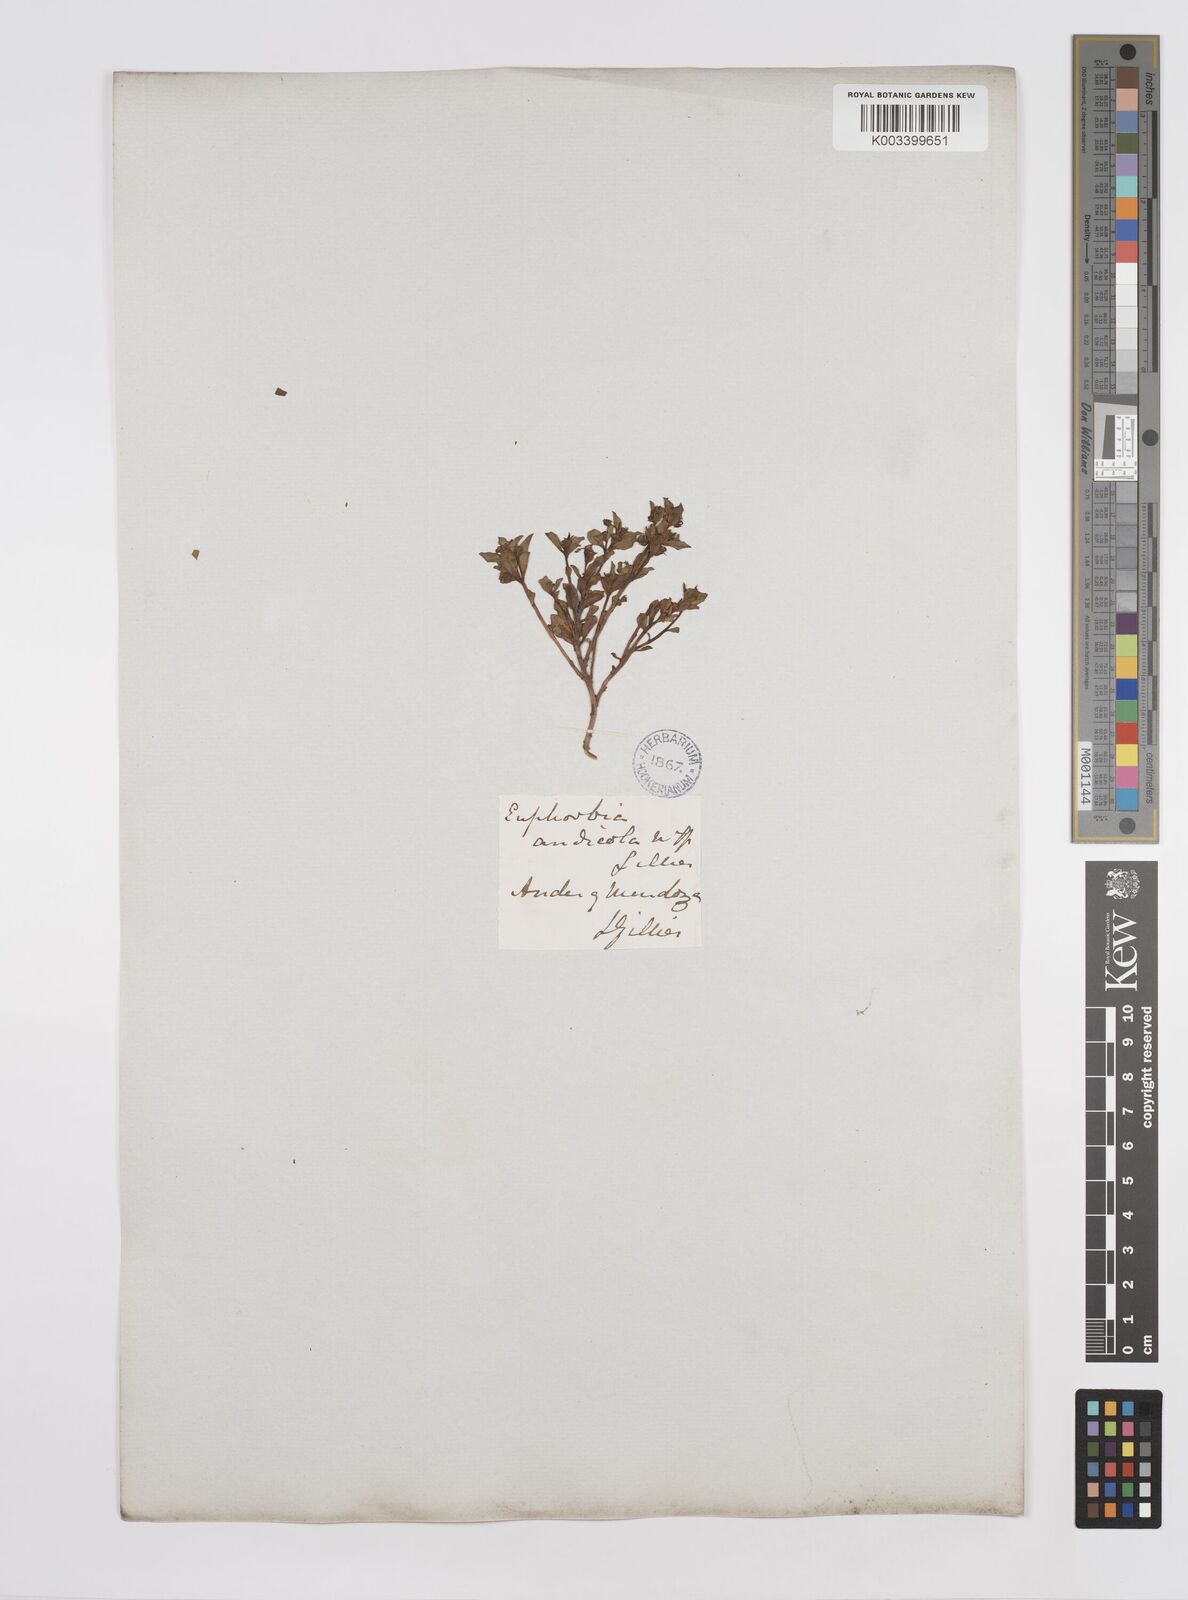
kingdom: Plantae
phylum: Tracheophyta
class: Magnoliopsida
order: Malpighiales
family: Euphorbiaceae
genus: Euphorbia
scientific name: Euphorbia portulacoides
